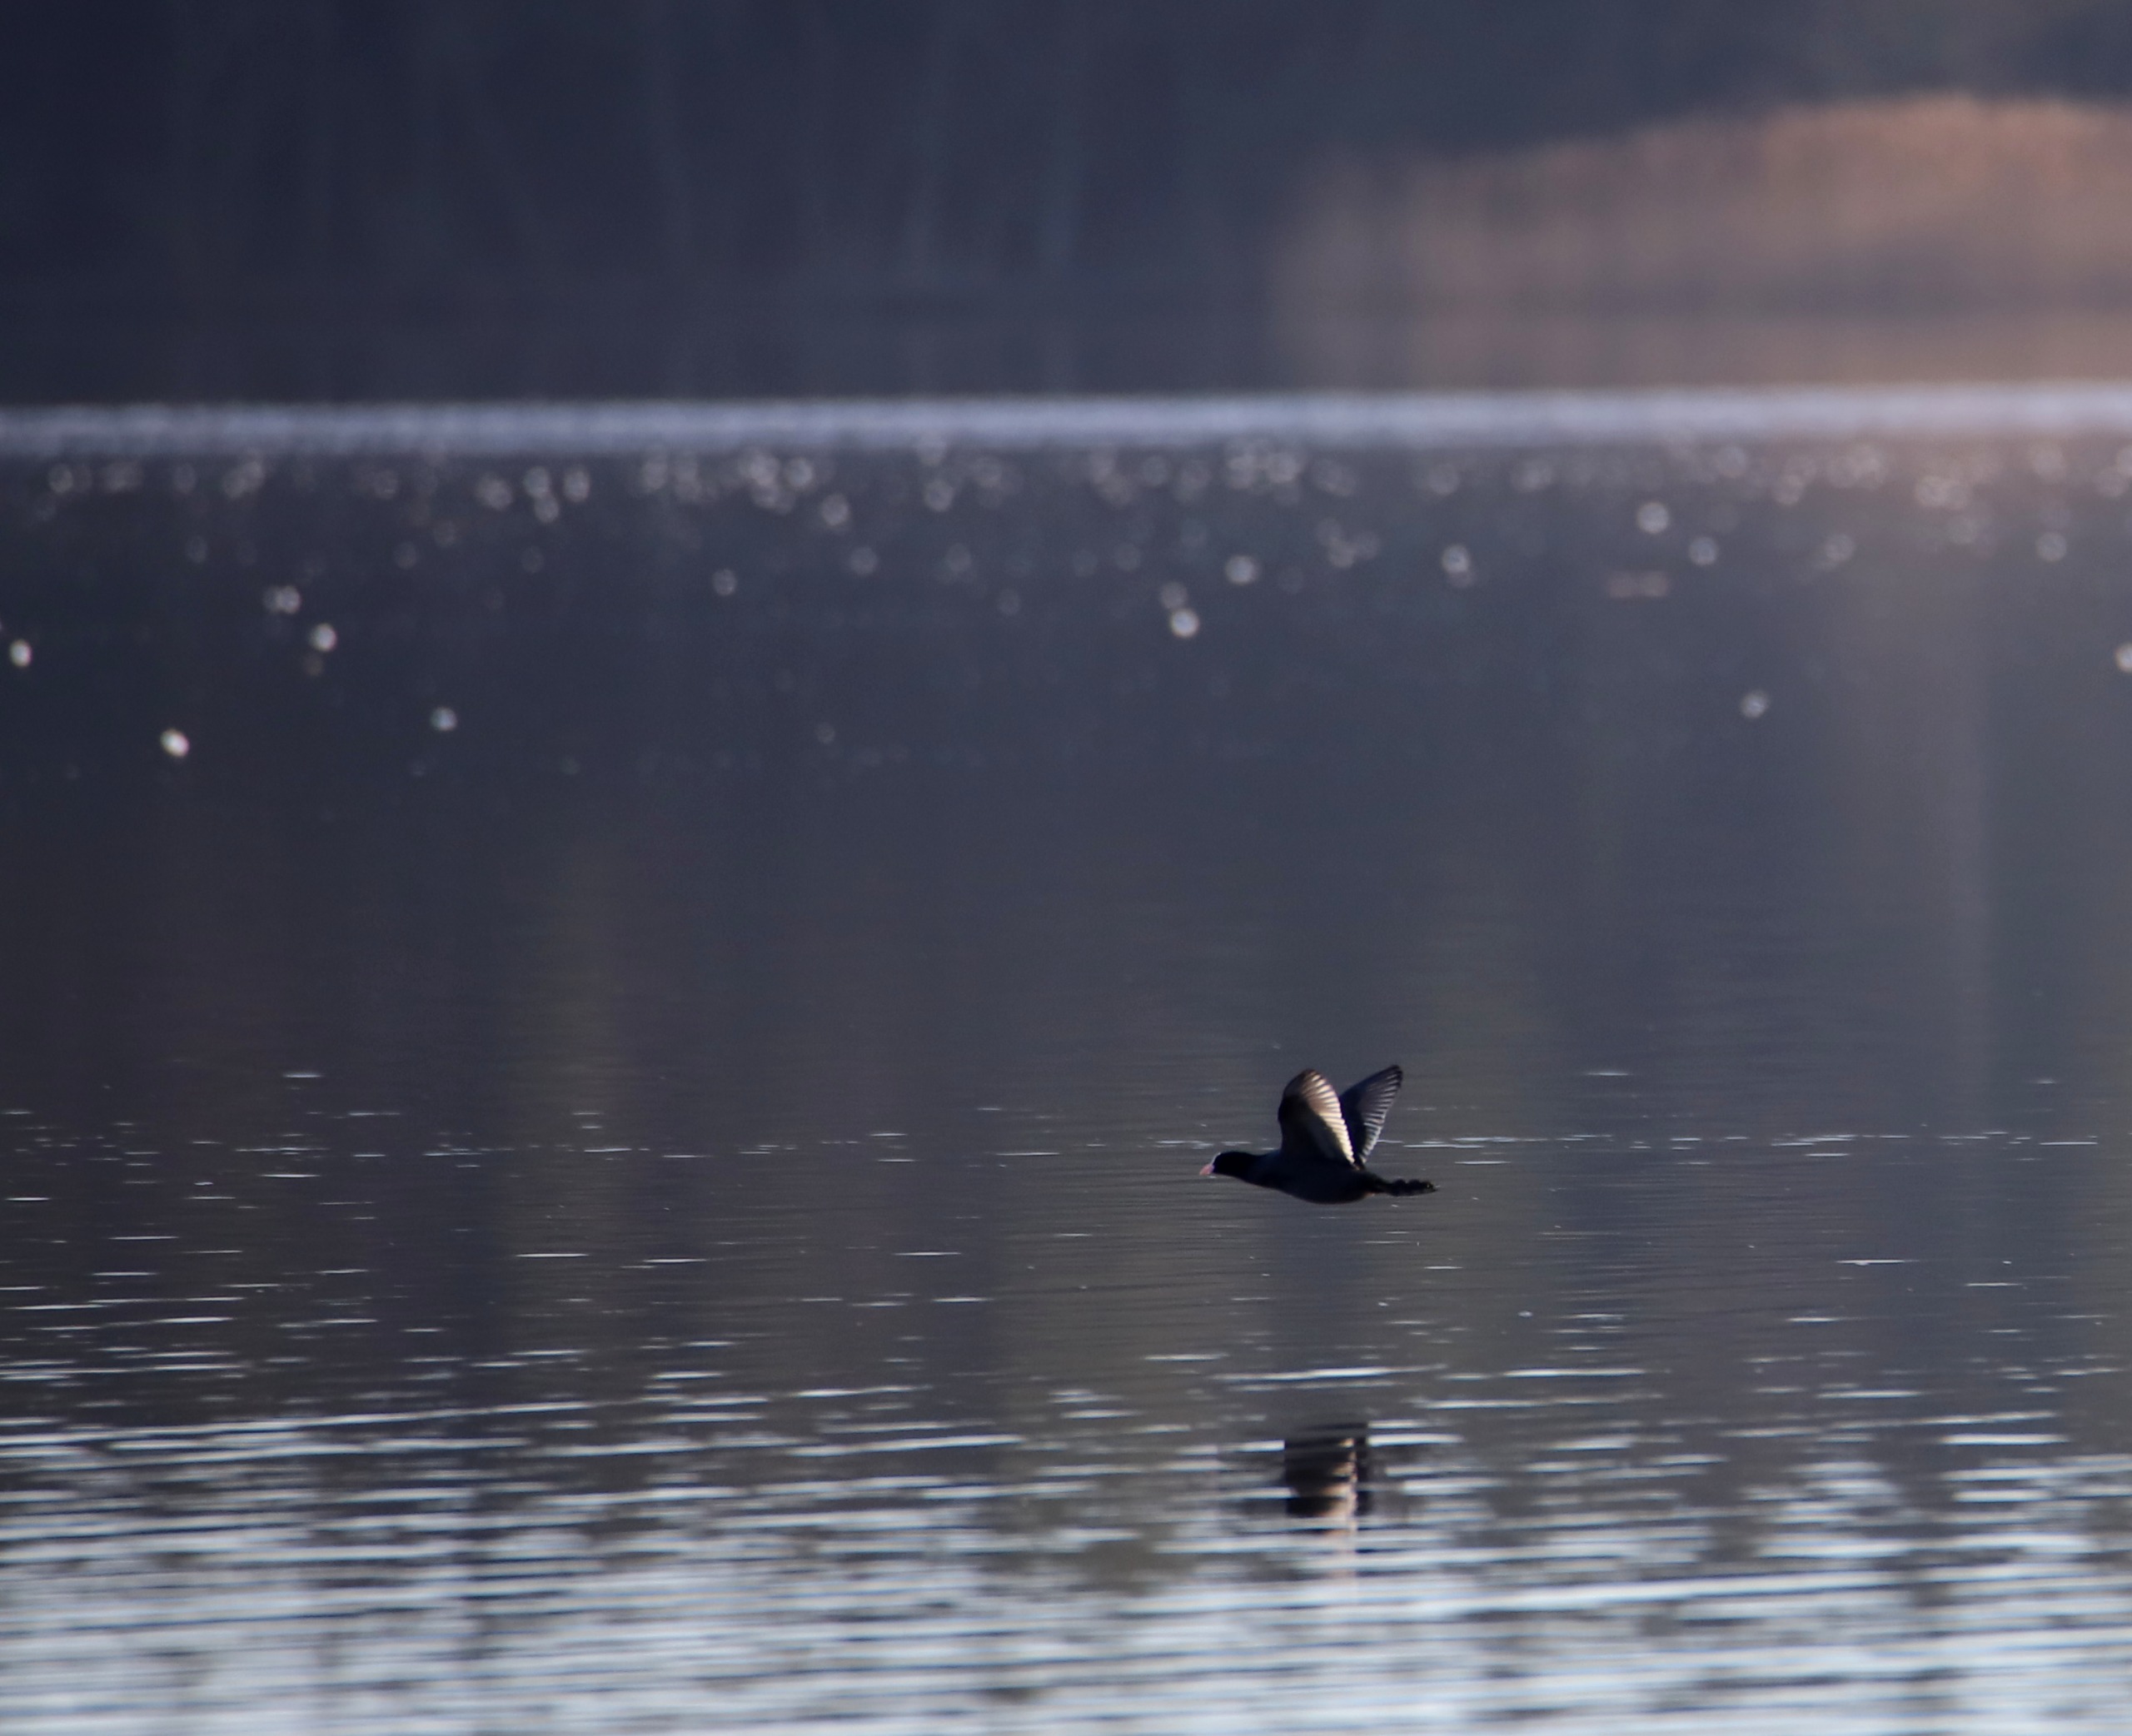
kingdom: Animalia
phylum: Chordata
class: Aves
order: Gruiformes
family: Rallidae
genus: Fulica
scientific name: Fulica atra
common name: Blishøne
